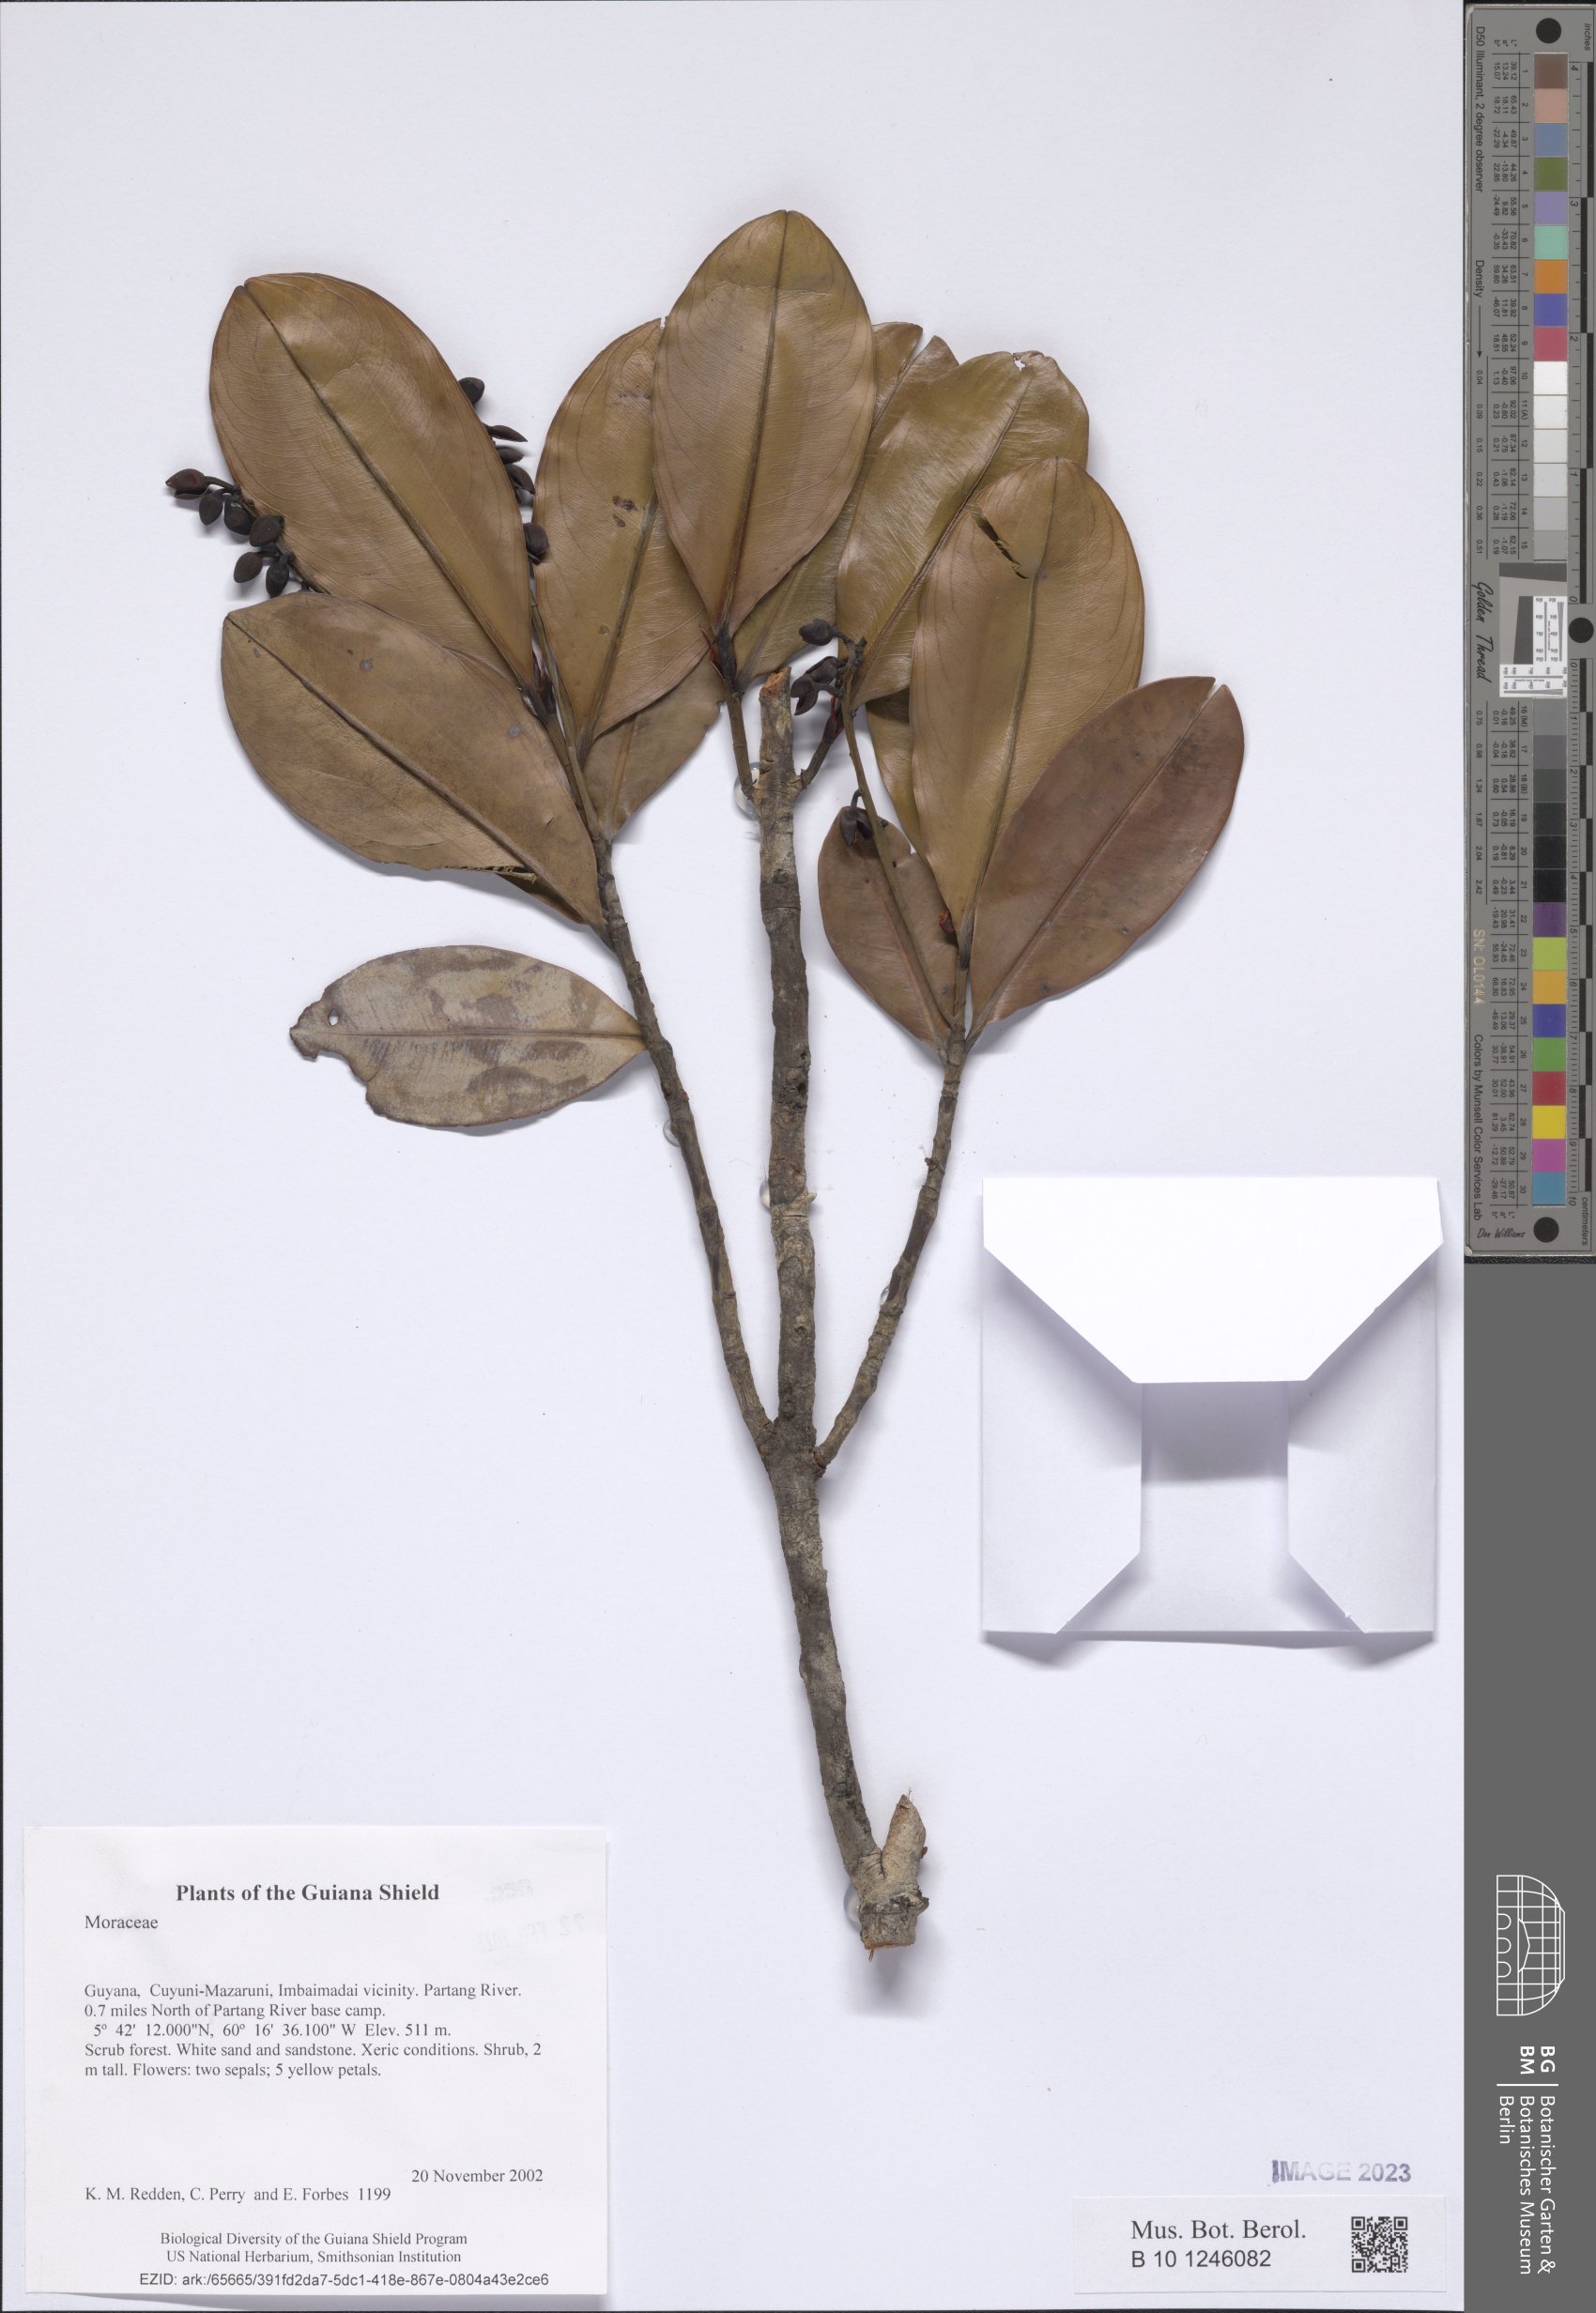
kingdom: Plantae
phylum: Tracheophyta
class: Magnoliopsida
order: Rosales
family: Moraceae
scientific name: Moraceae
